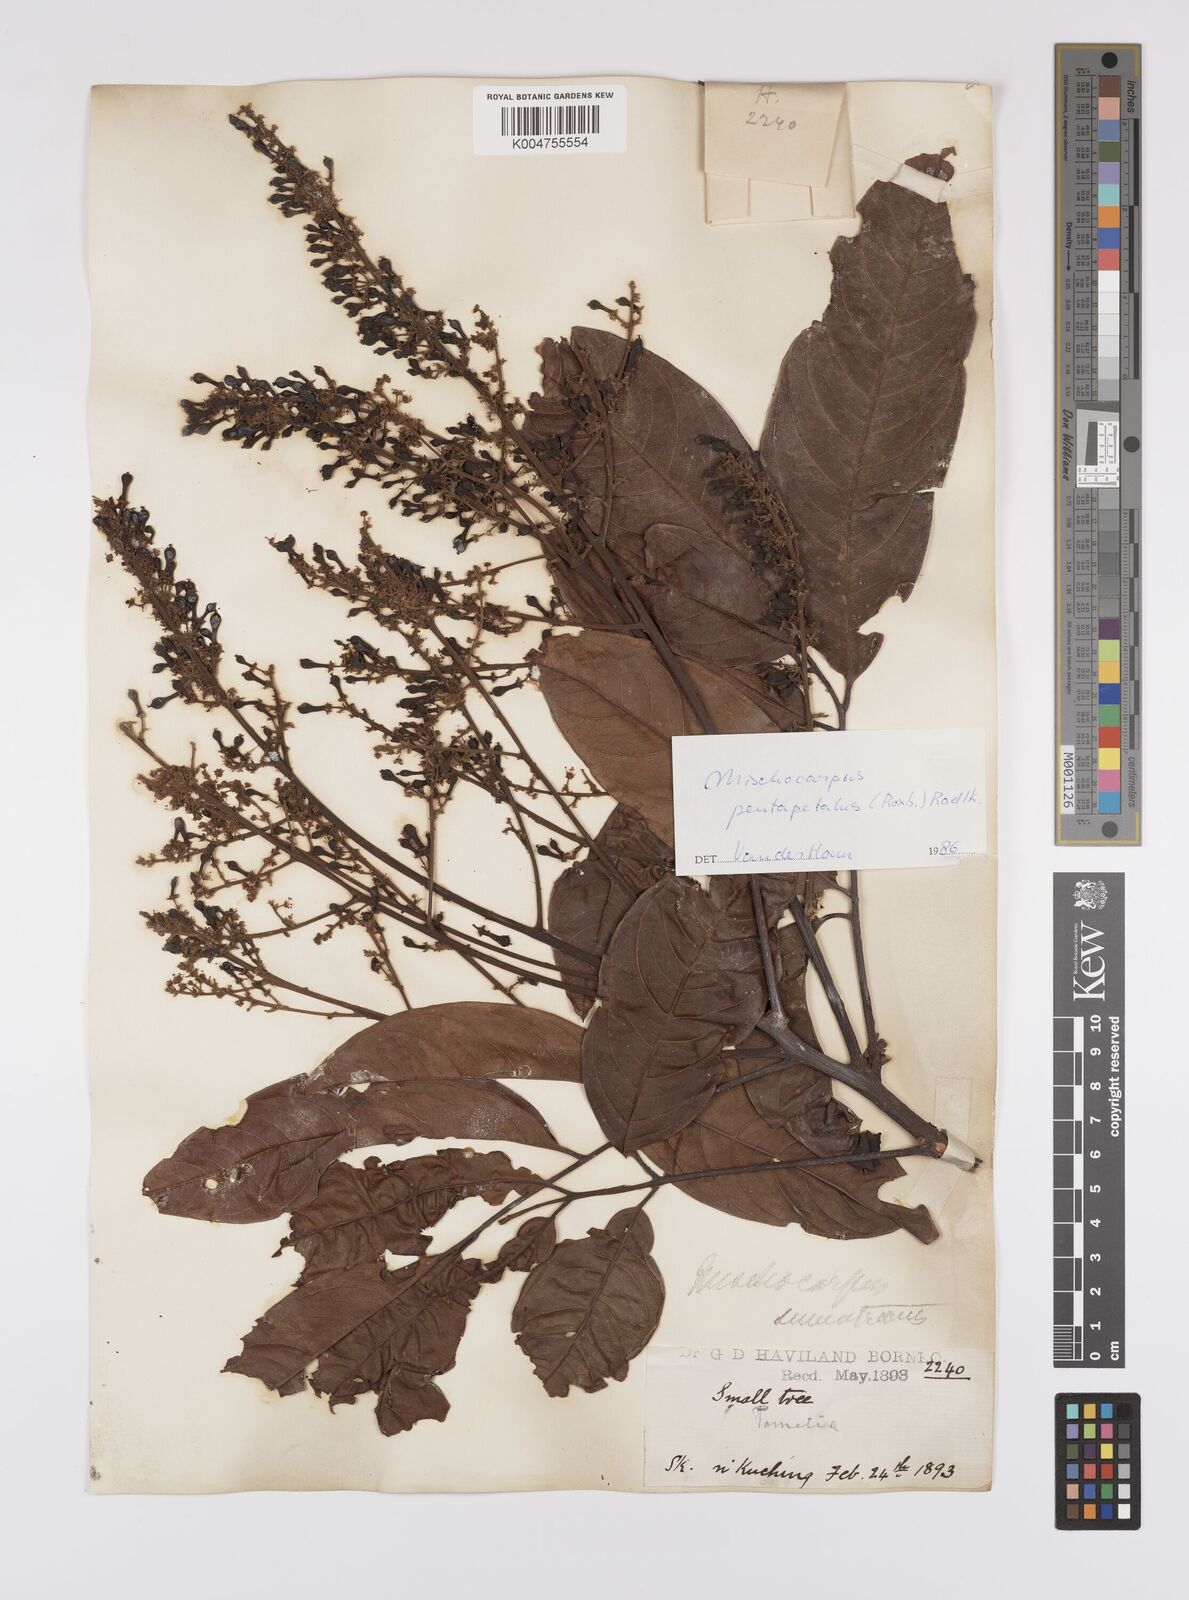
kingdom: Plantae
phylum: Tracheophyta
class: Magnoliopsida
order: Sapindales
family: Sapindaceae
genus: Mischocarpus
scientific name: Mischocarpus pentapetalus
